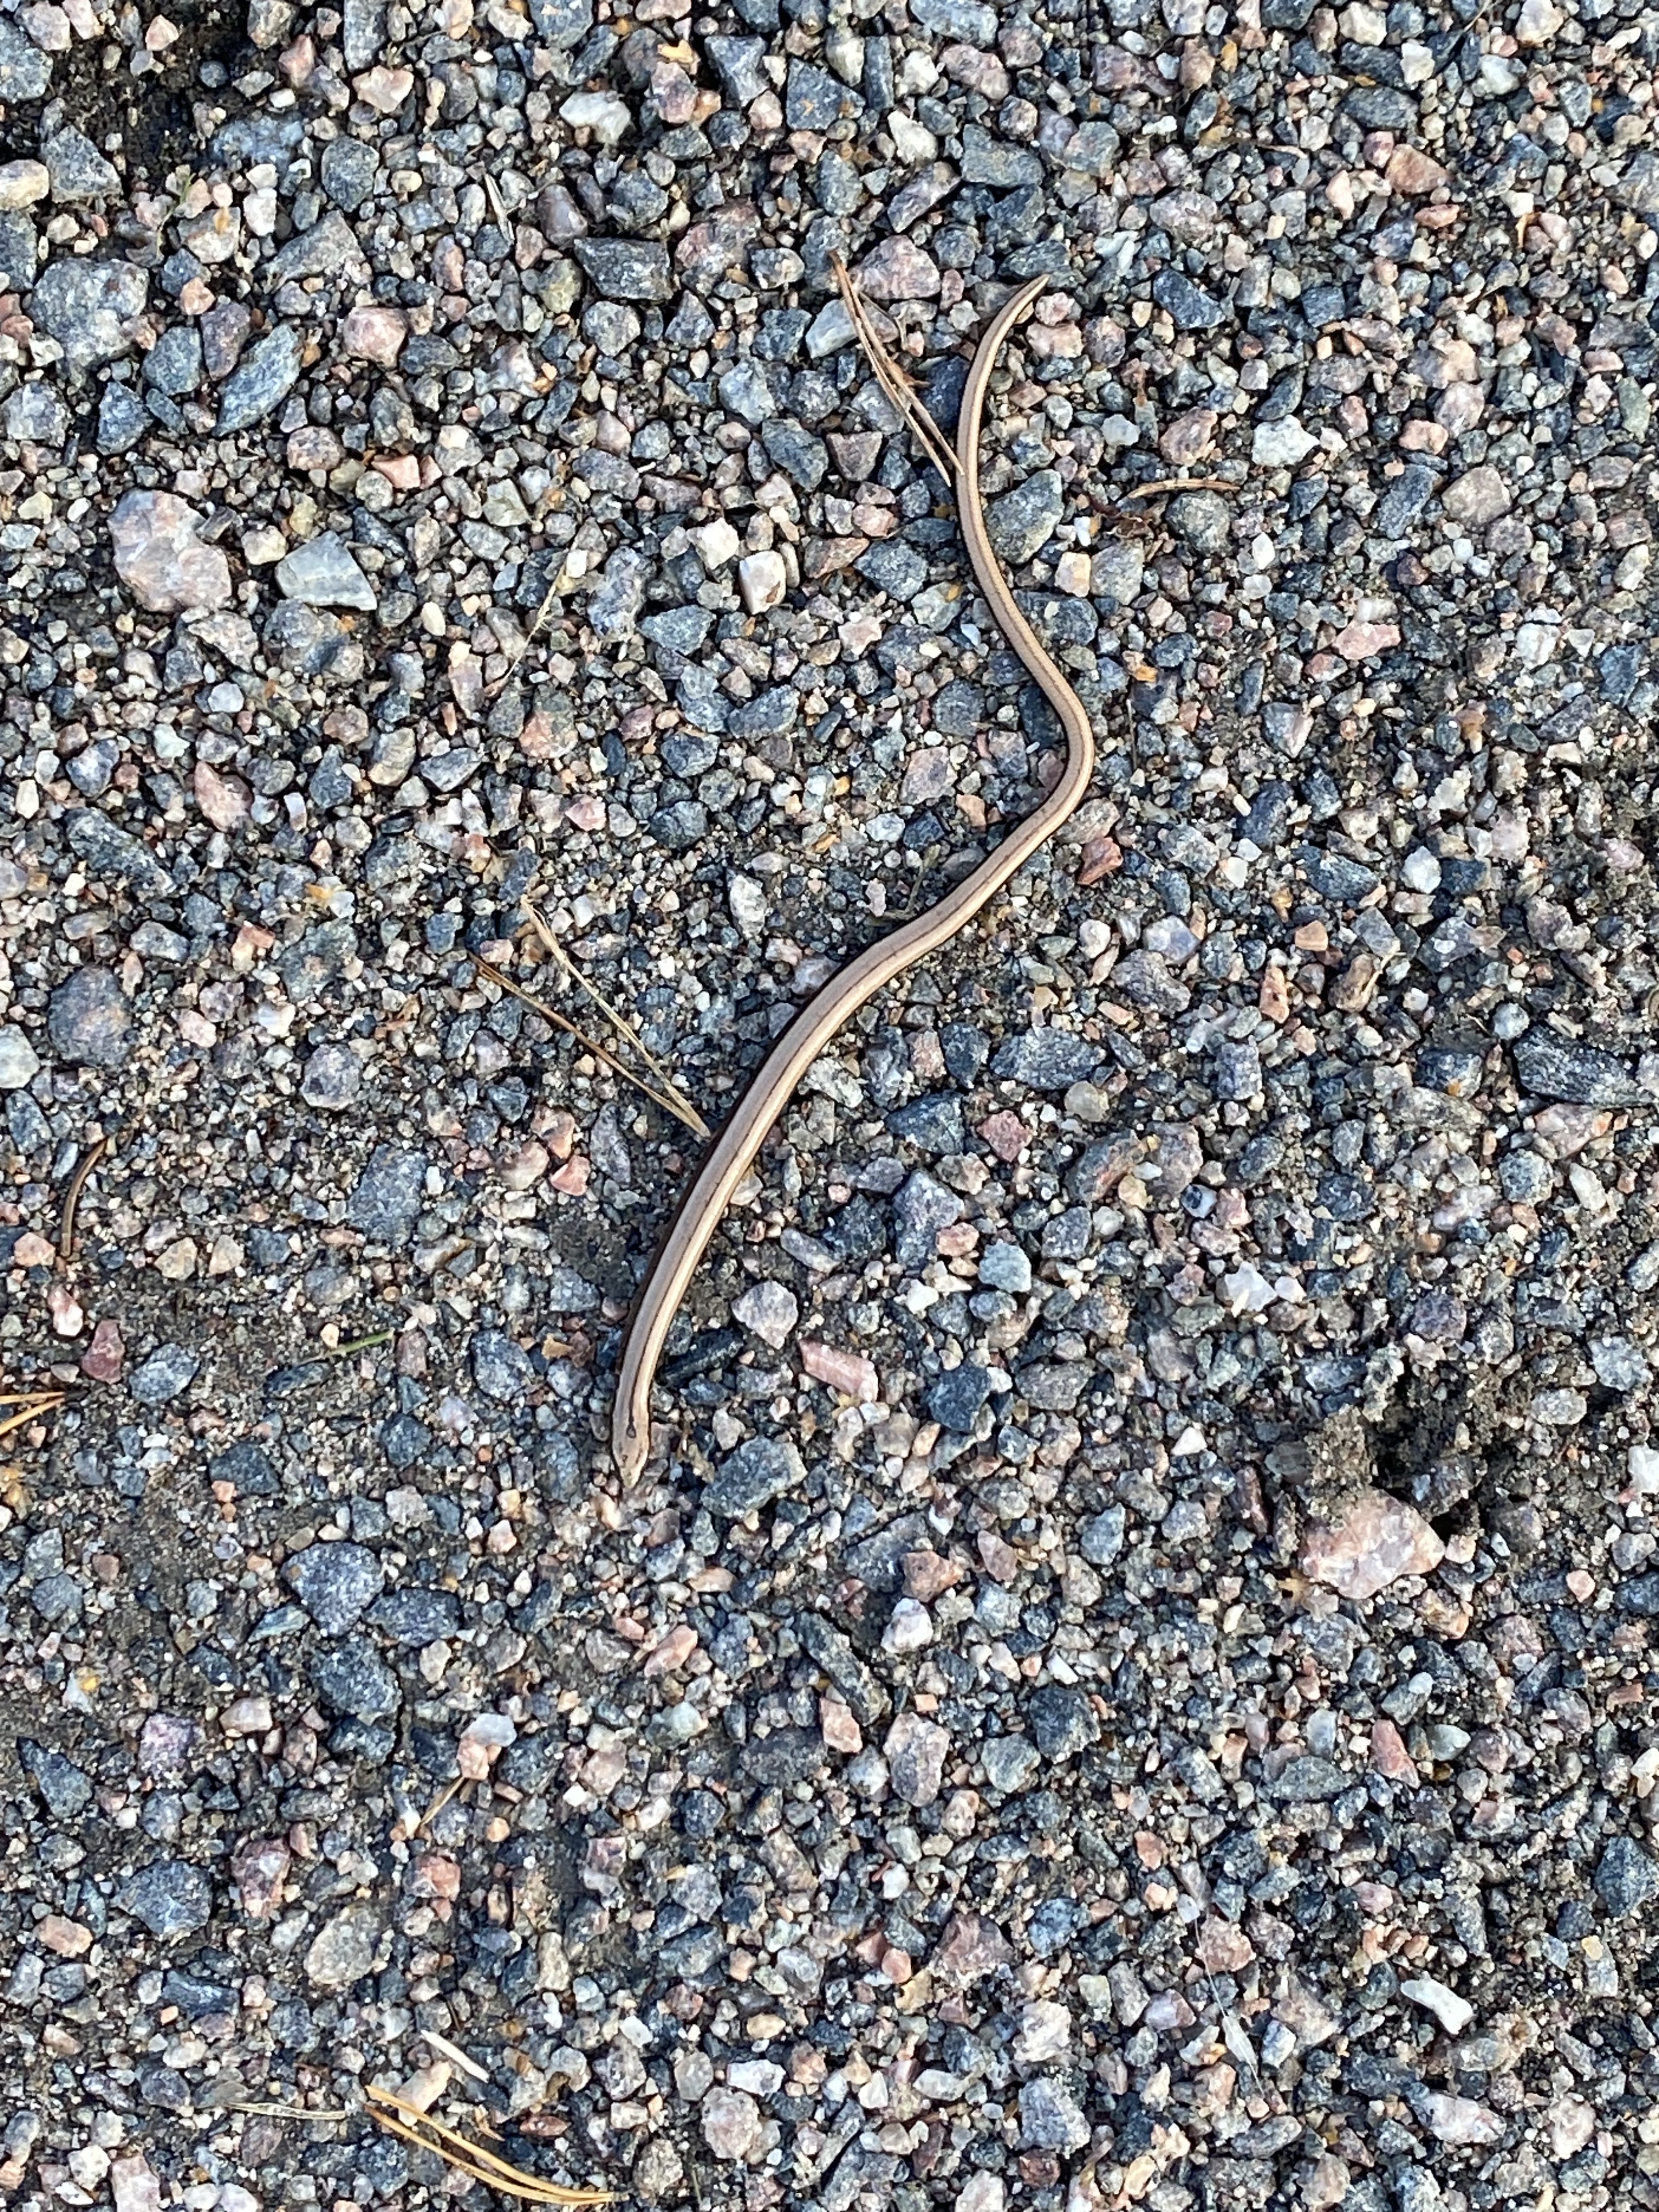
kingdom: Animalia
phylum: Chordata
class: Squamata
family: Anguidae
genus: Anguis
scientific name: Anguis colchica
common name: Slow worm
